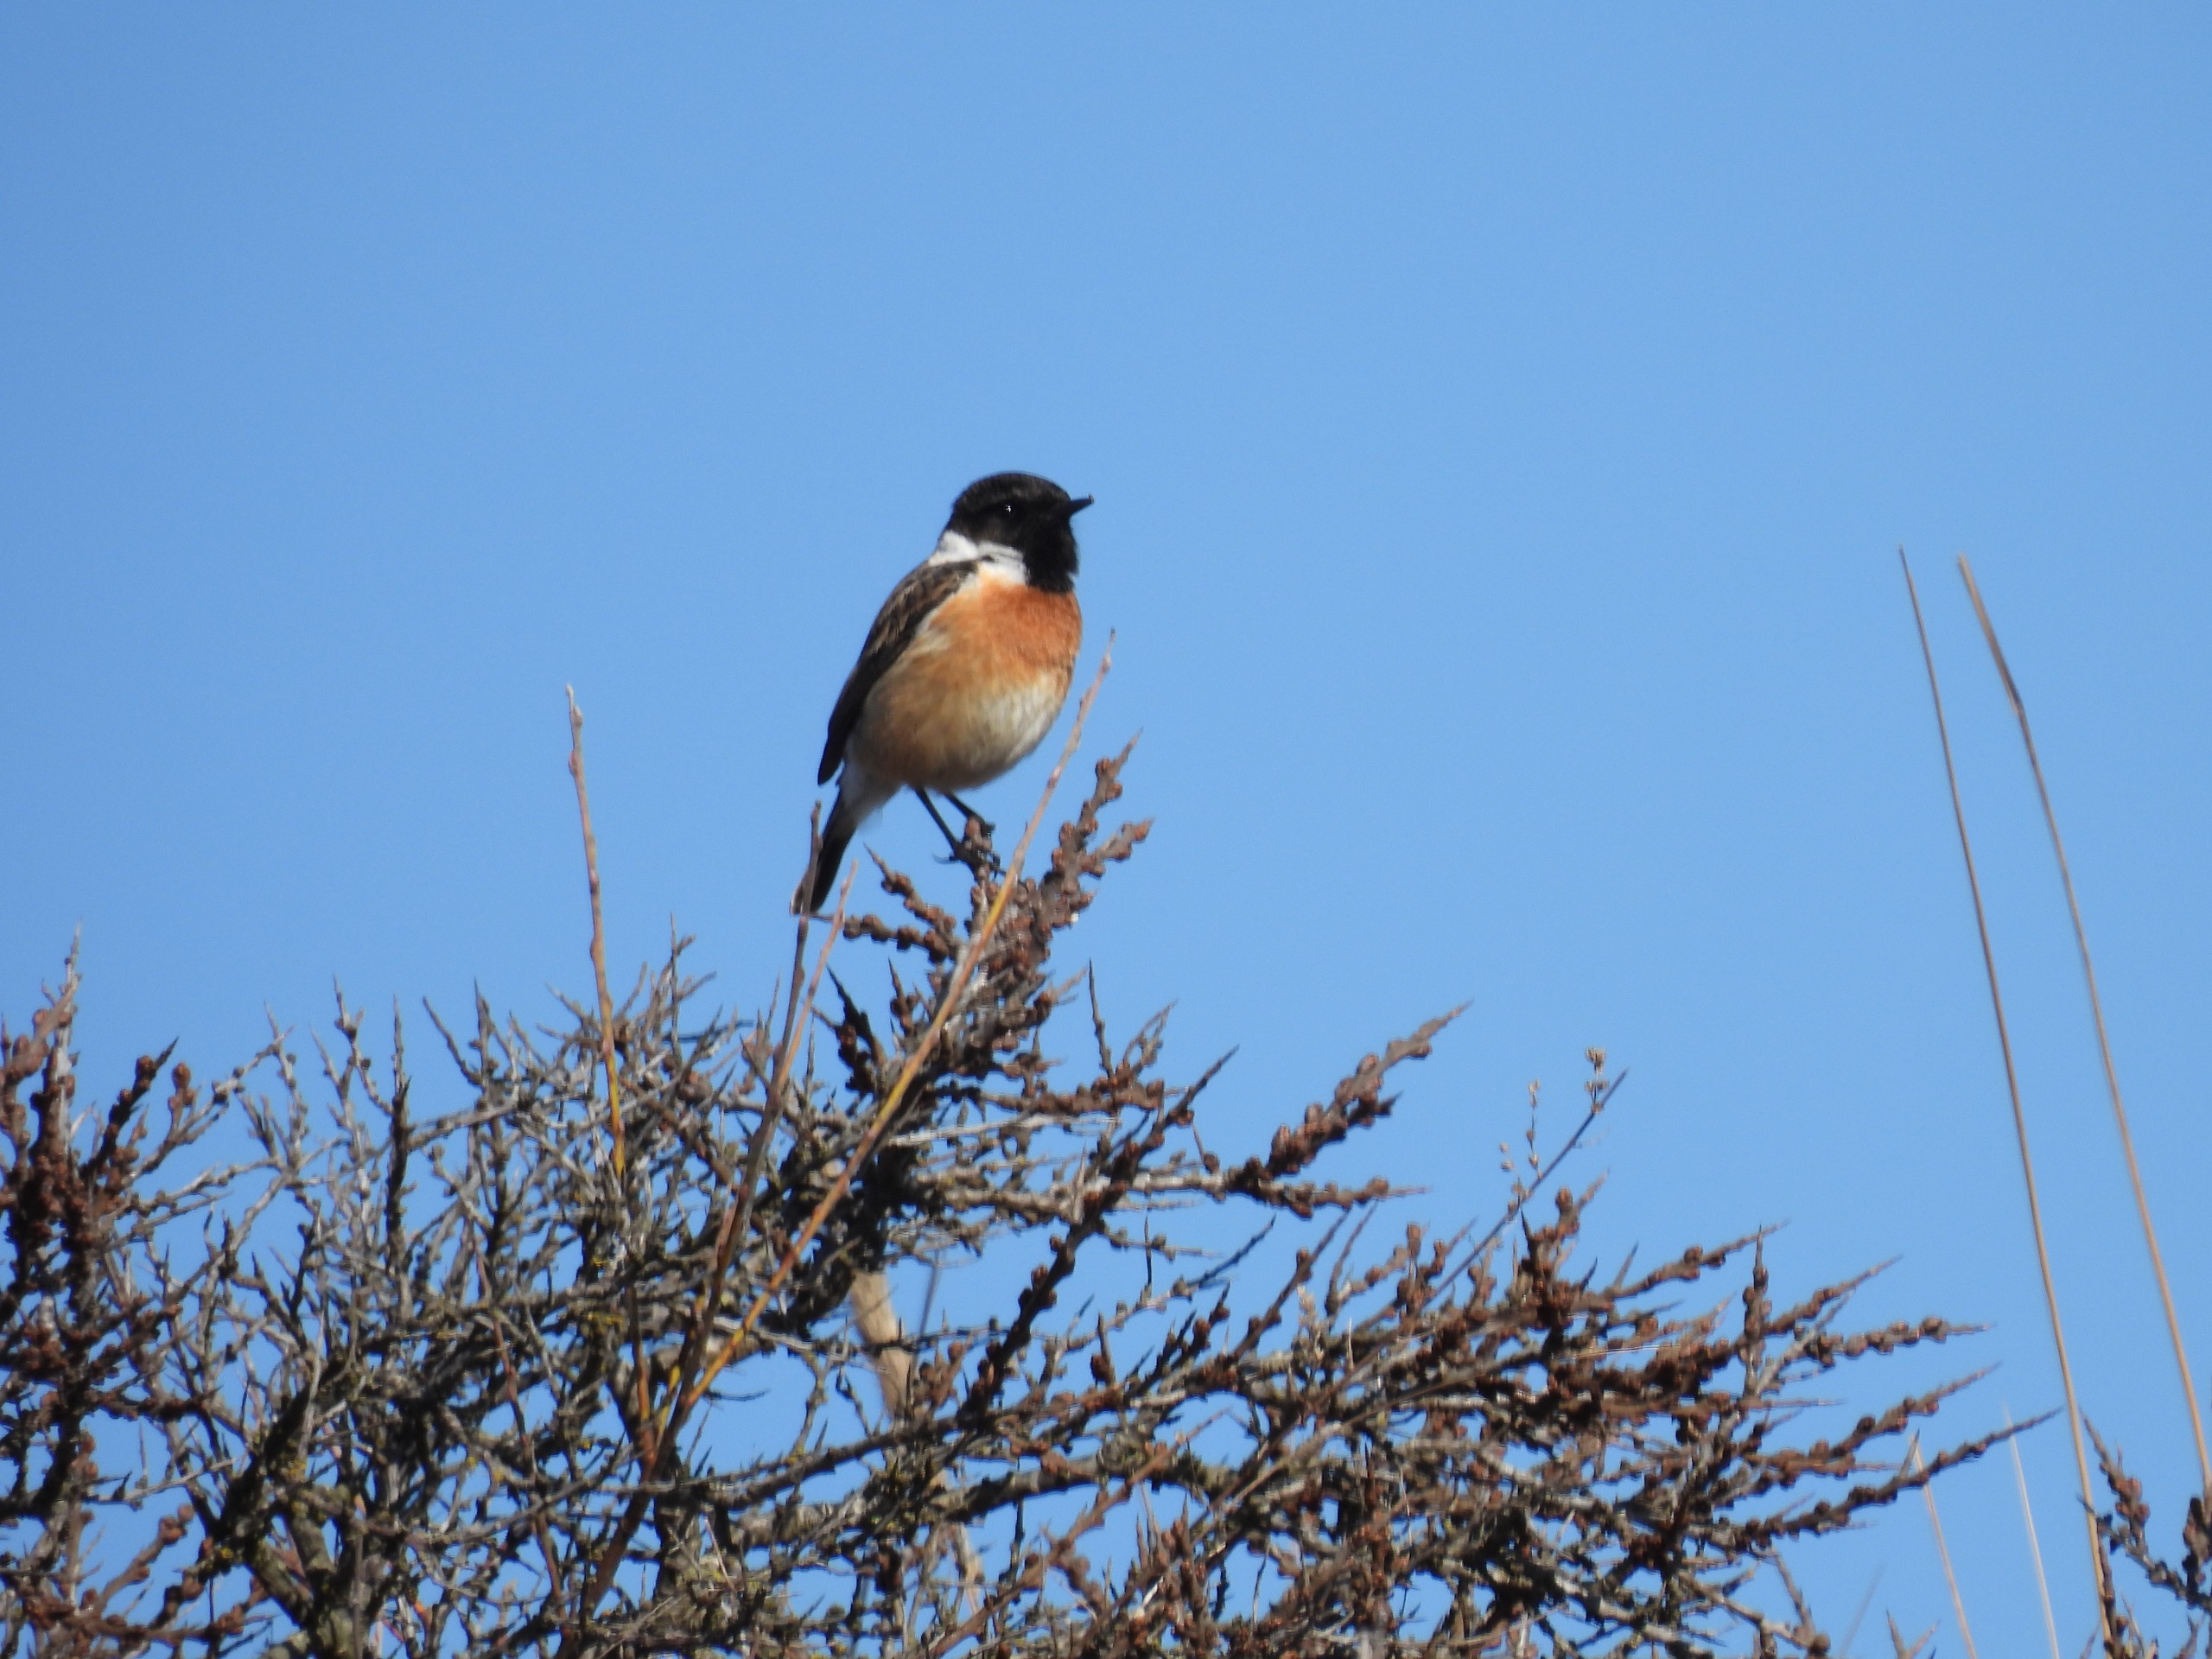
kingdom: Animalia
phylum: Chordata
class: Aves
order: Passeriformes
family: Muscicapidae
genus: Saxicola
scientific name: Saxicola rubicola
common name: Sortstrubet bynkefugl
